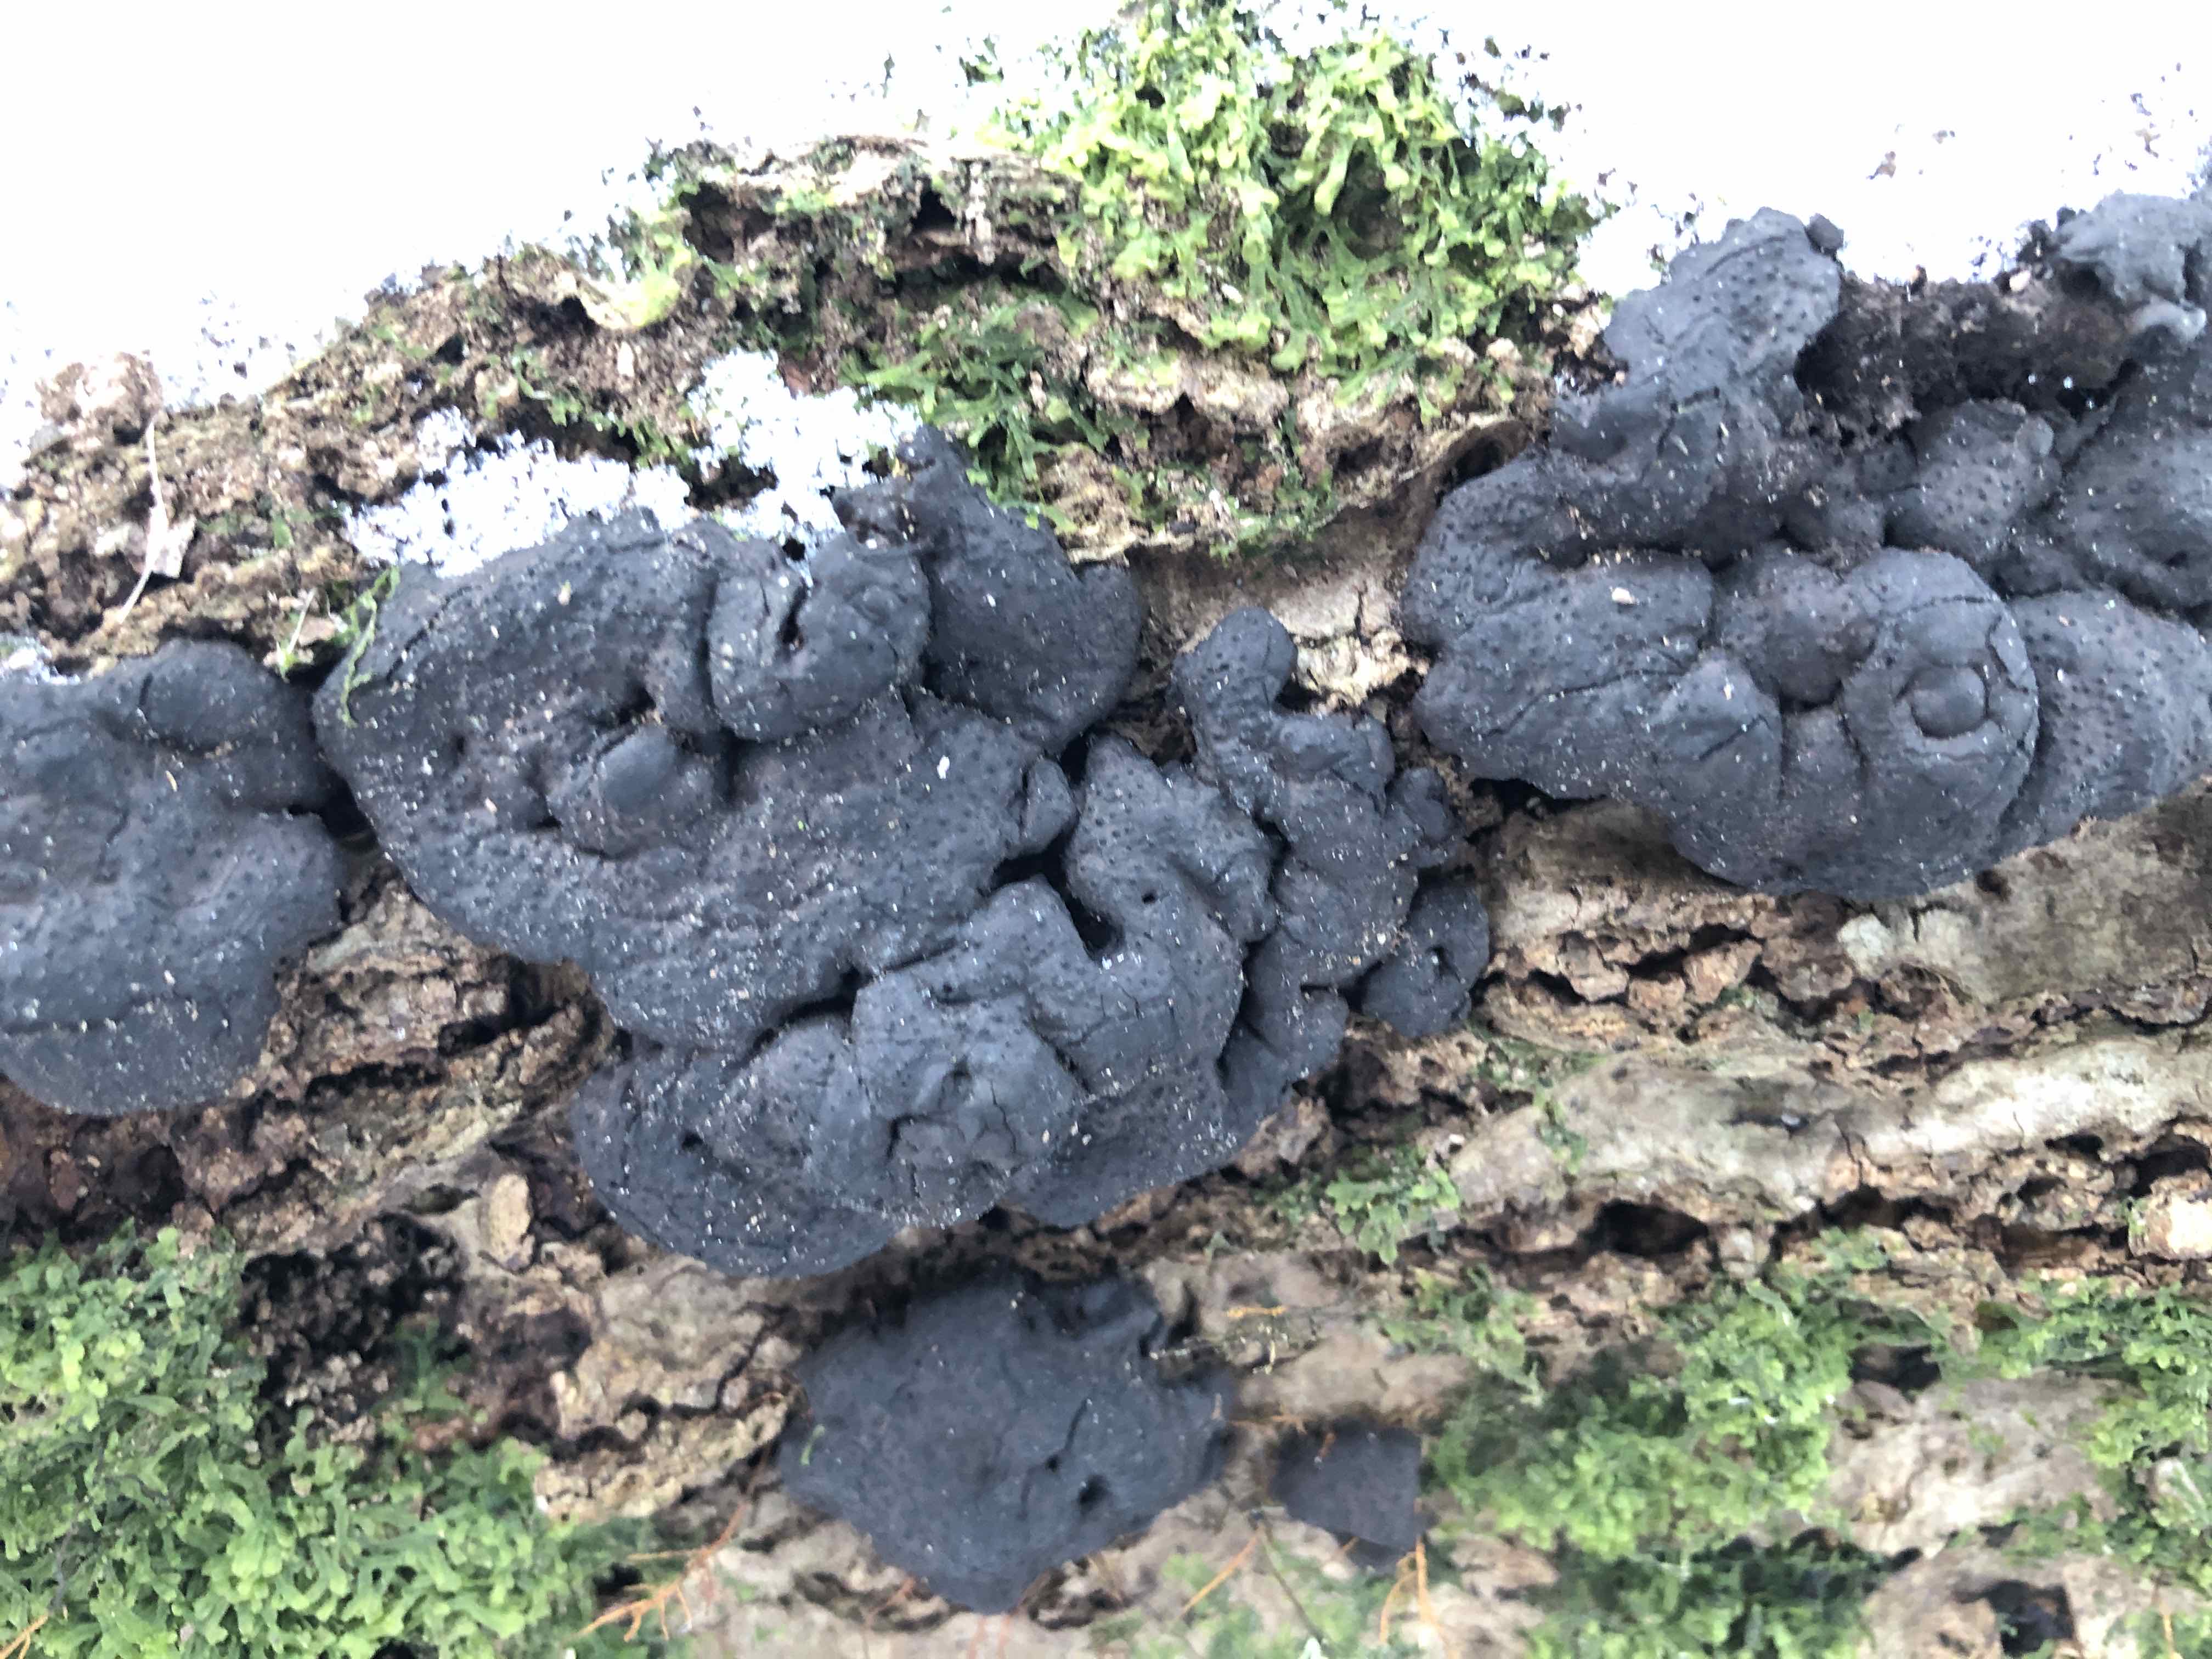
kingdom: Fungi
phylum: Ascomycota
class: Sordariomycetes
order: Xylariales
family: Xylariaceae
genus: Kretzschmaria
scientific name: Kretzschmaria deusta
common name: stor kulsvamp
